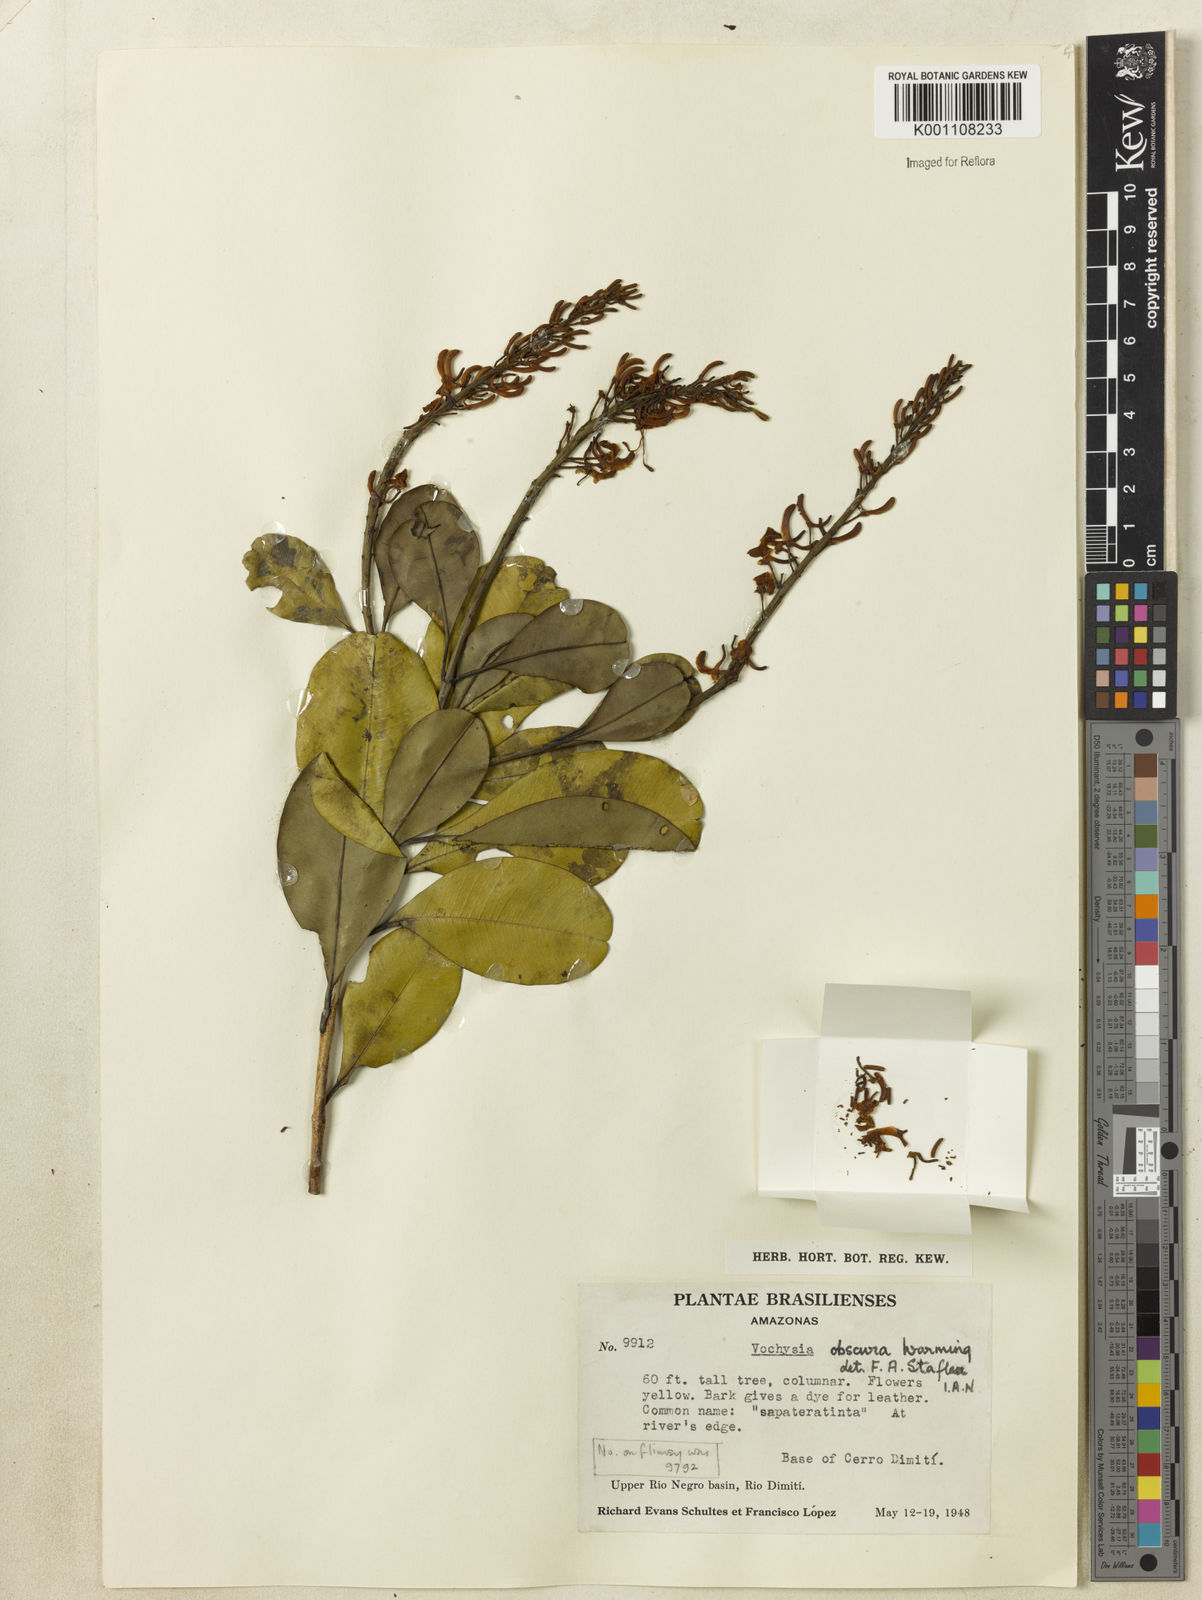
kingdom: Plantae
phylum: Tracheophyta
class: Magnoliopsida
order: Myrtales
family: Vochysiaceae
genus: Vochysia
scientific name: Vochysia obscura
